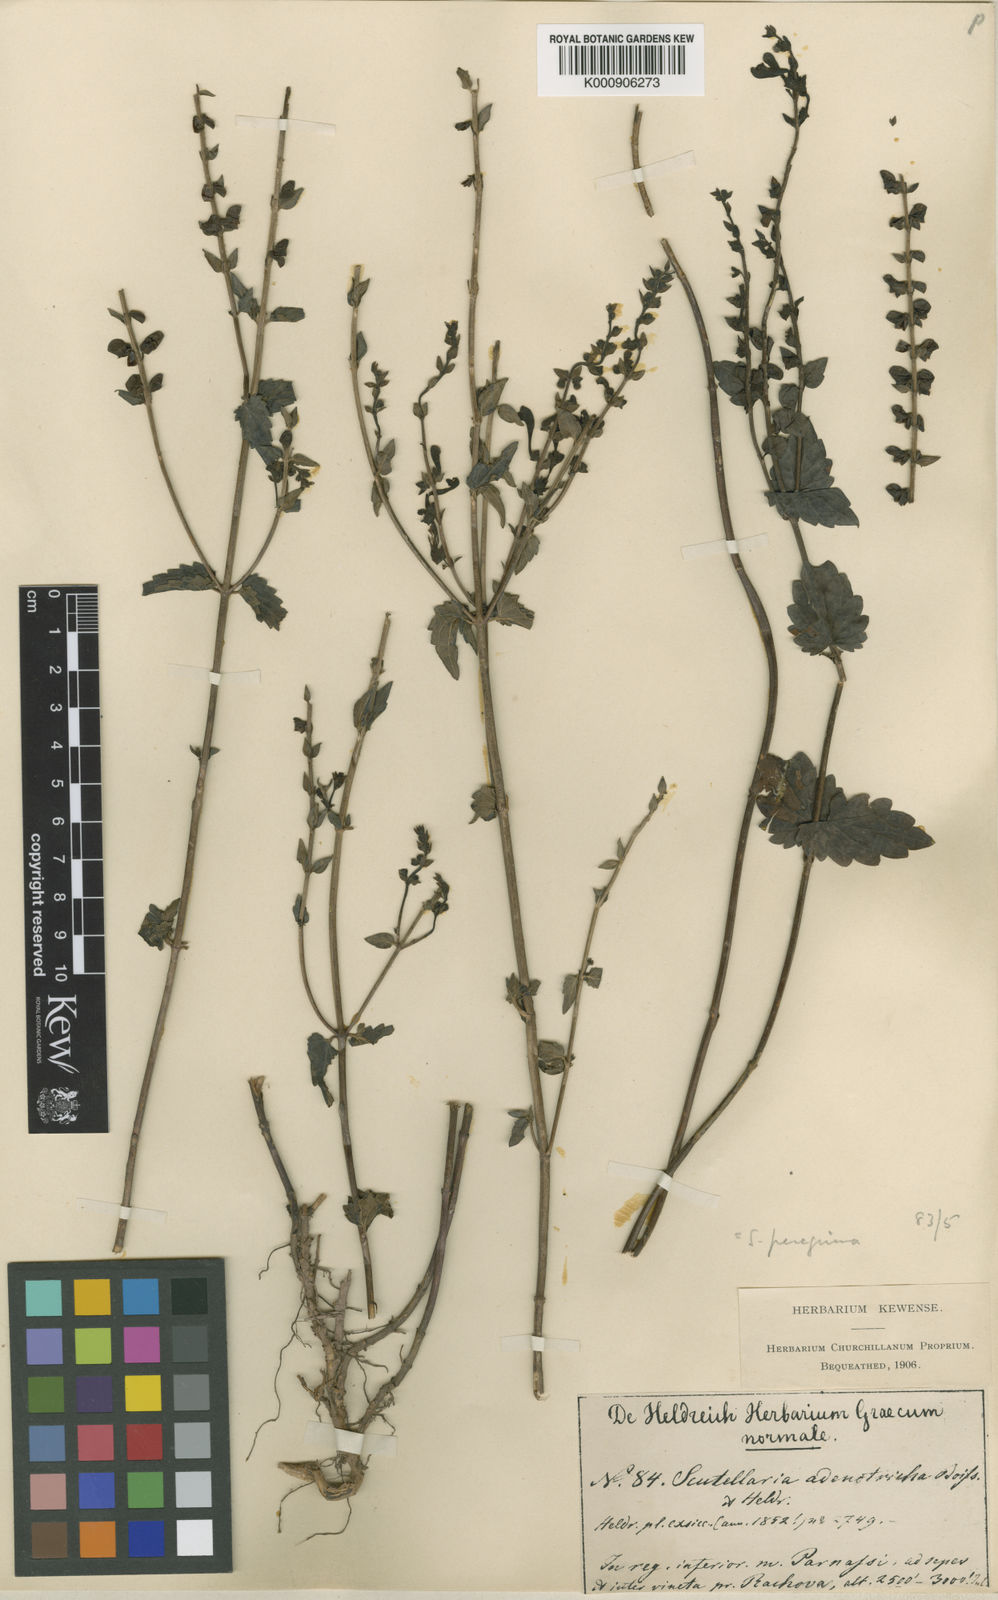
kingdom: Plantae
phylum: Tracheophyta
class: Magnoliopsida
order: Lamiales
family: Lamiaceae
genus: Scutellaria
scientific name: Scutellaria rubicunda
